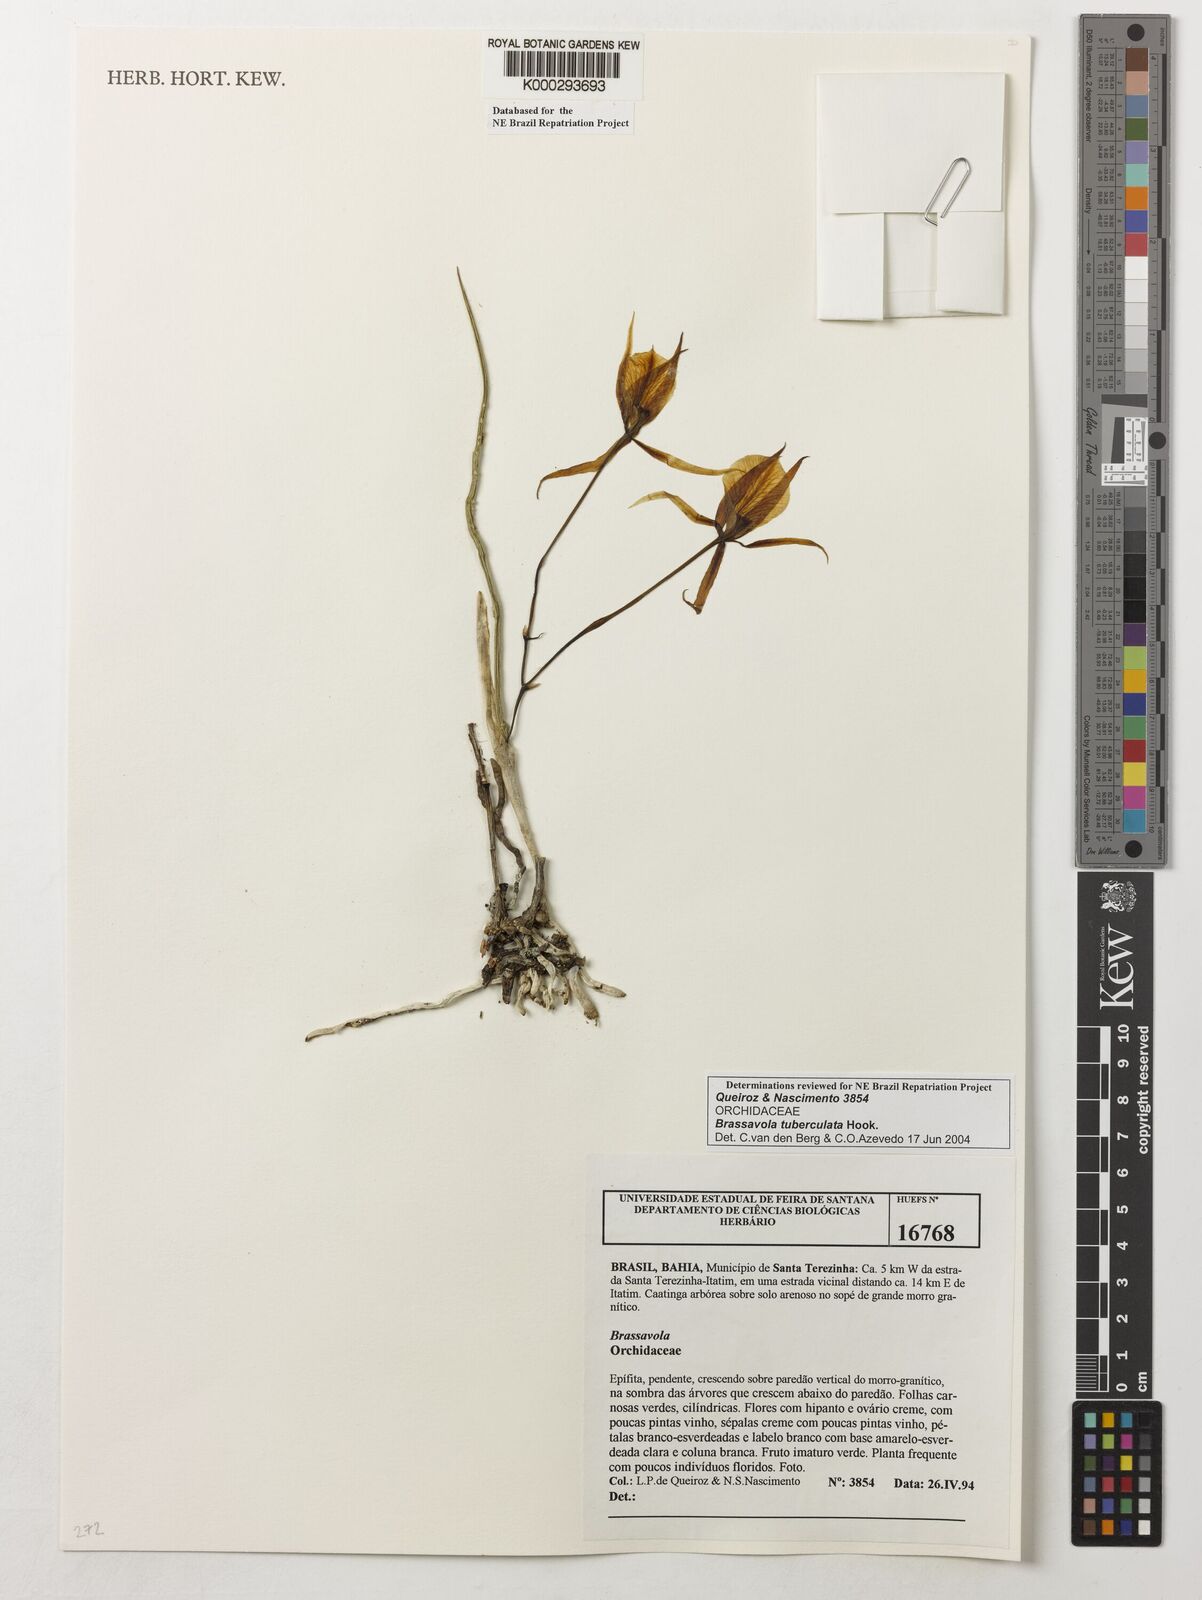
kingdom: Plantae
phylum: Tracheophyta
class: Liliopsida
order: Asparagales
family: Orchidaceae
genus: Brassavola
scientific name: Brassavola tuberculata
